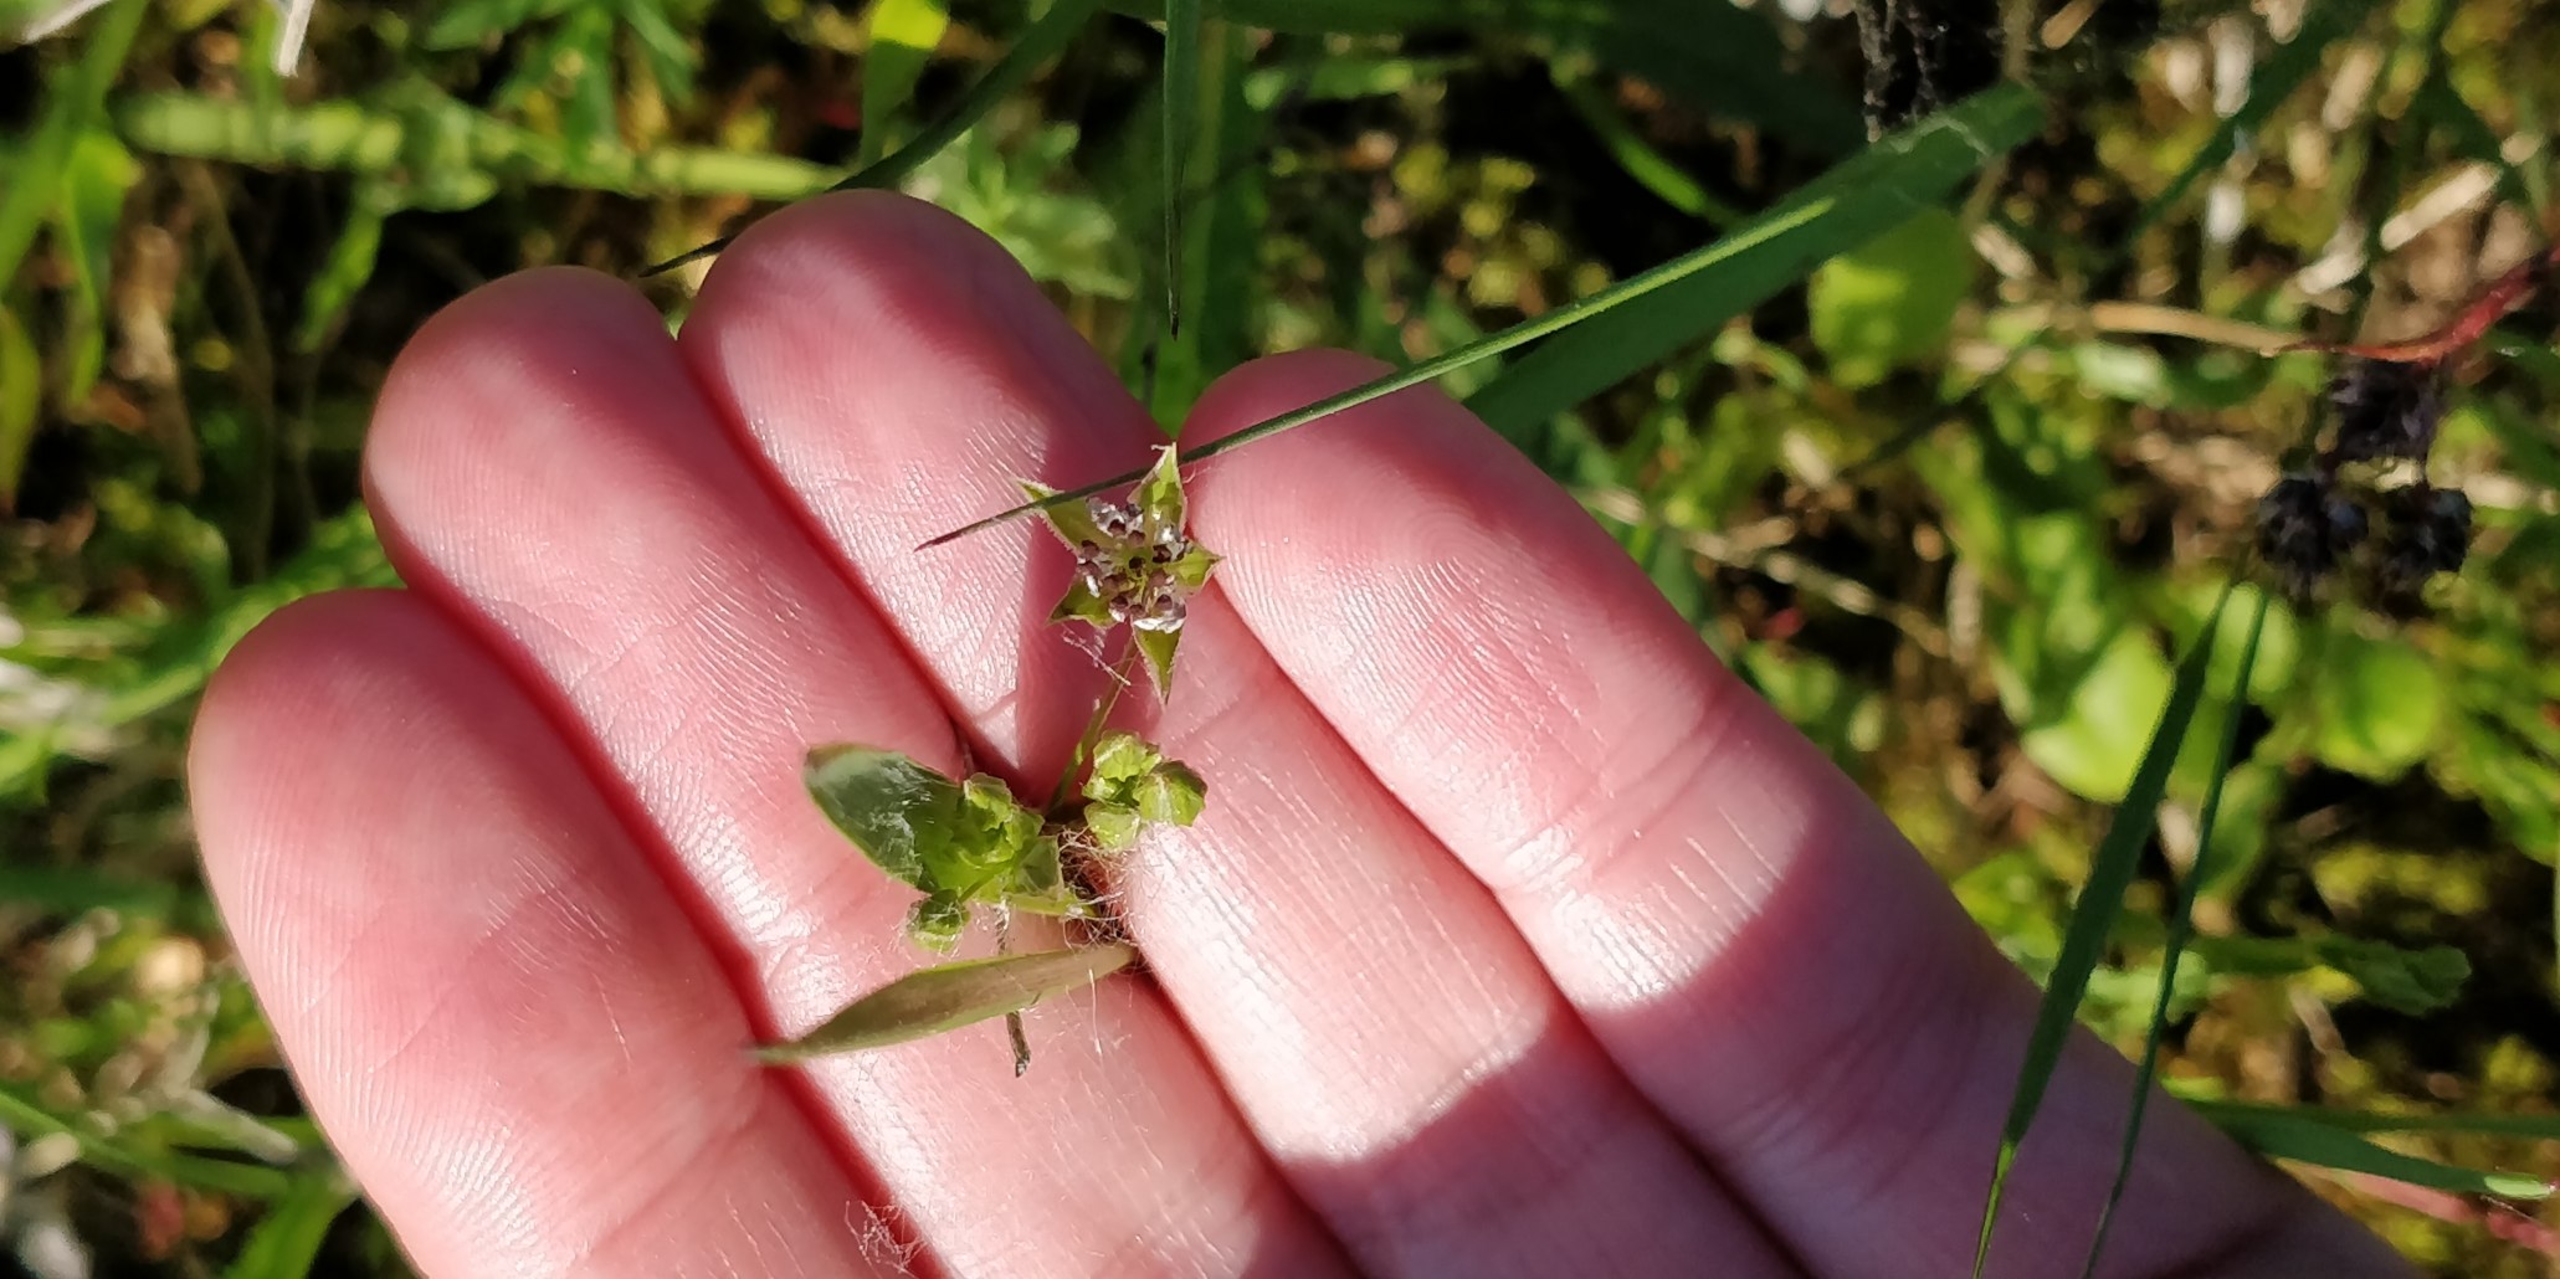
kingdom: Plantae
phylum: Tracheophyta
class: Magnoliopsida
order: Caryophyllales
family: Caryophyllaceae
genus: Stellaria
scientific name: Stellaria graminea
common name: Græsbladet fladstjerne
